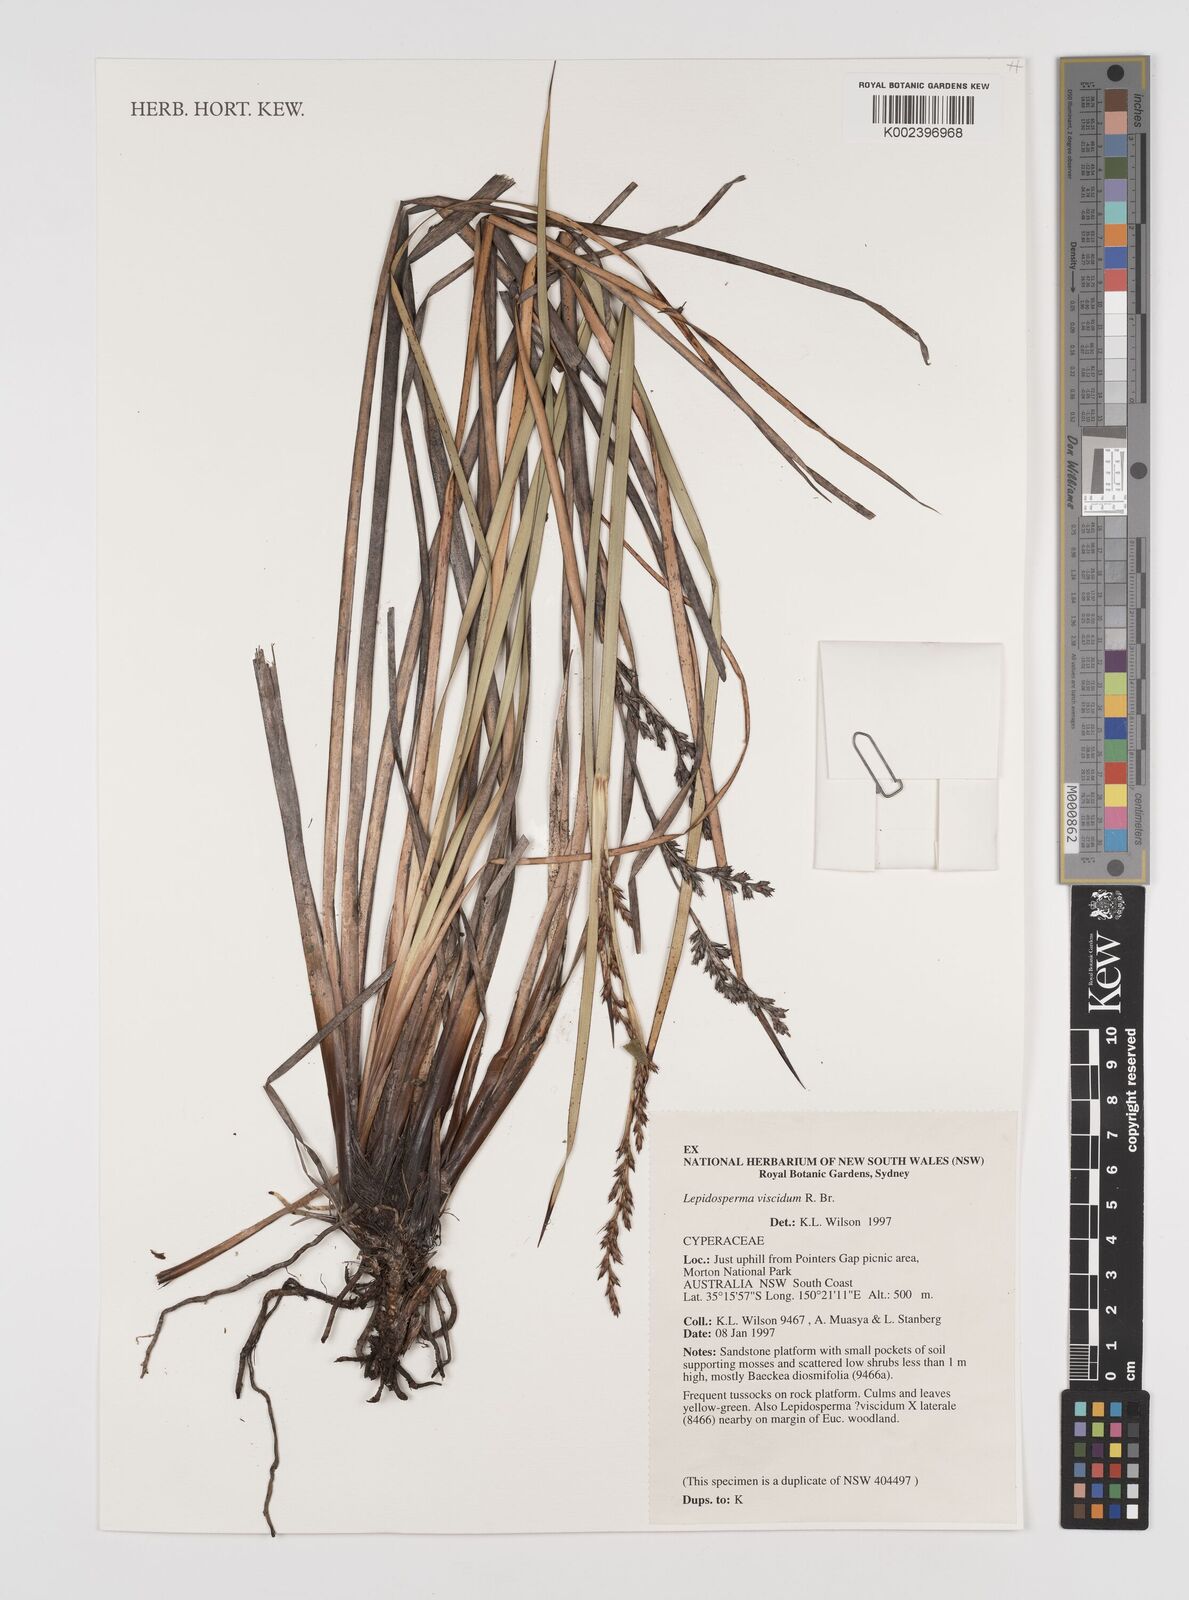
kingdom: Plantae
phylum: Tracheophyta
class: Liliopsida
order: Poales
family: Cyperaceae
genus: Lepidosperma
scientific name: Lepidosperma viscidum
